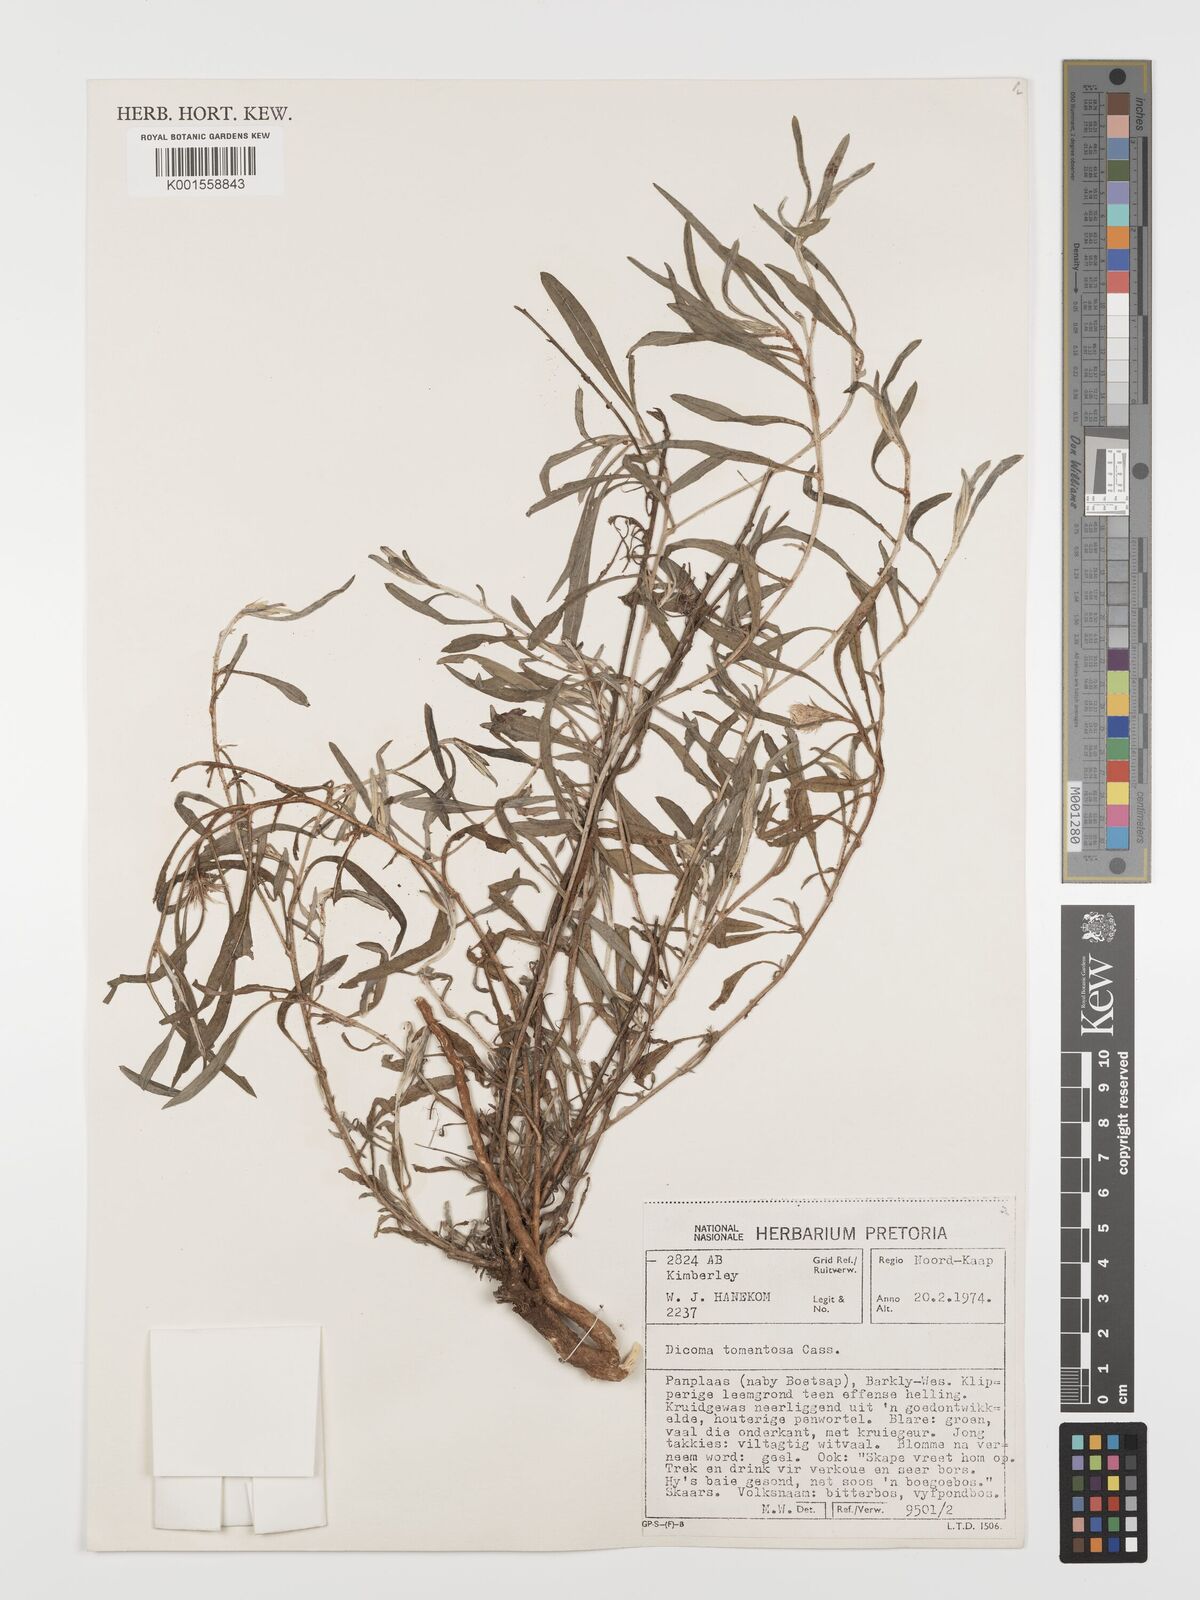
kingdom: Plantae
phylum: Tracheophyta
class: Magnoliopsida
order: Asterales
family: Asteraceae
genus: Dicoma
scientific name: Dicoma tomentosa
